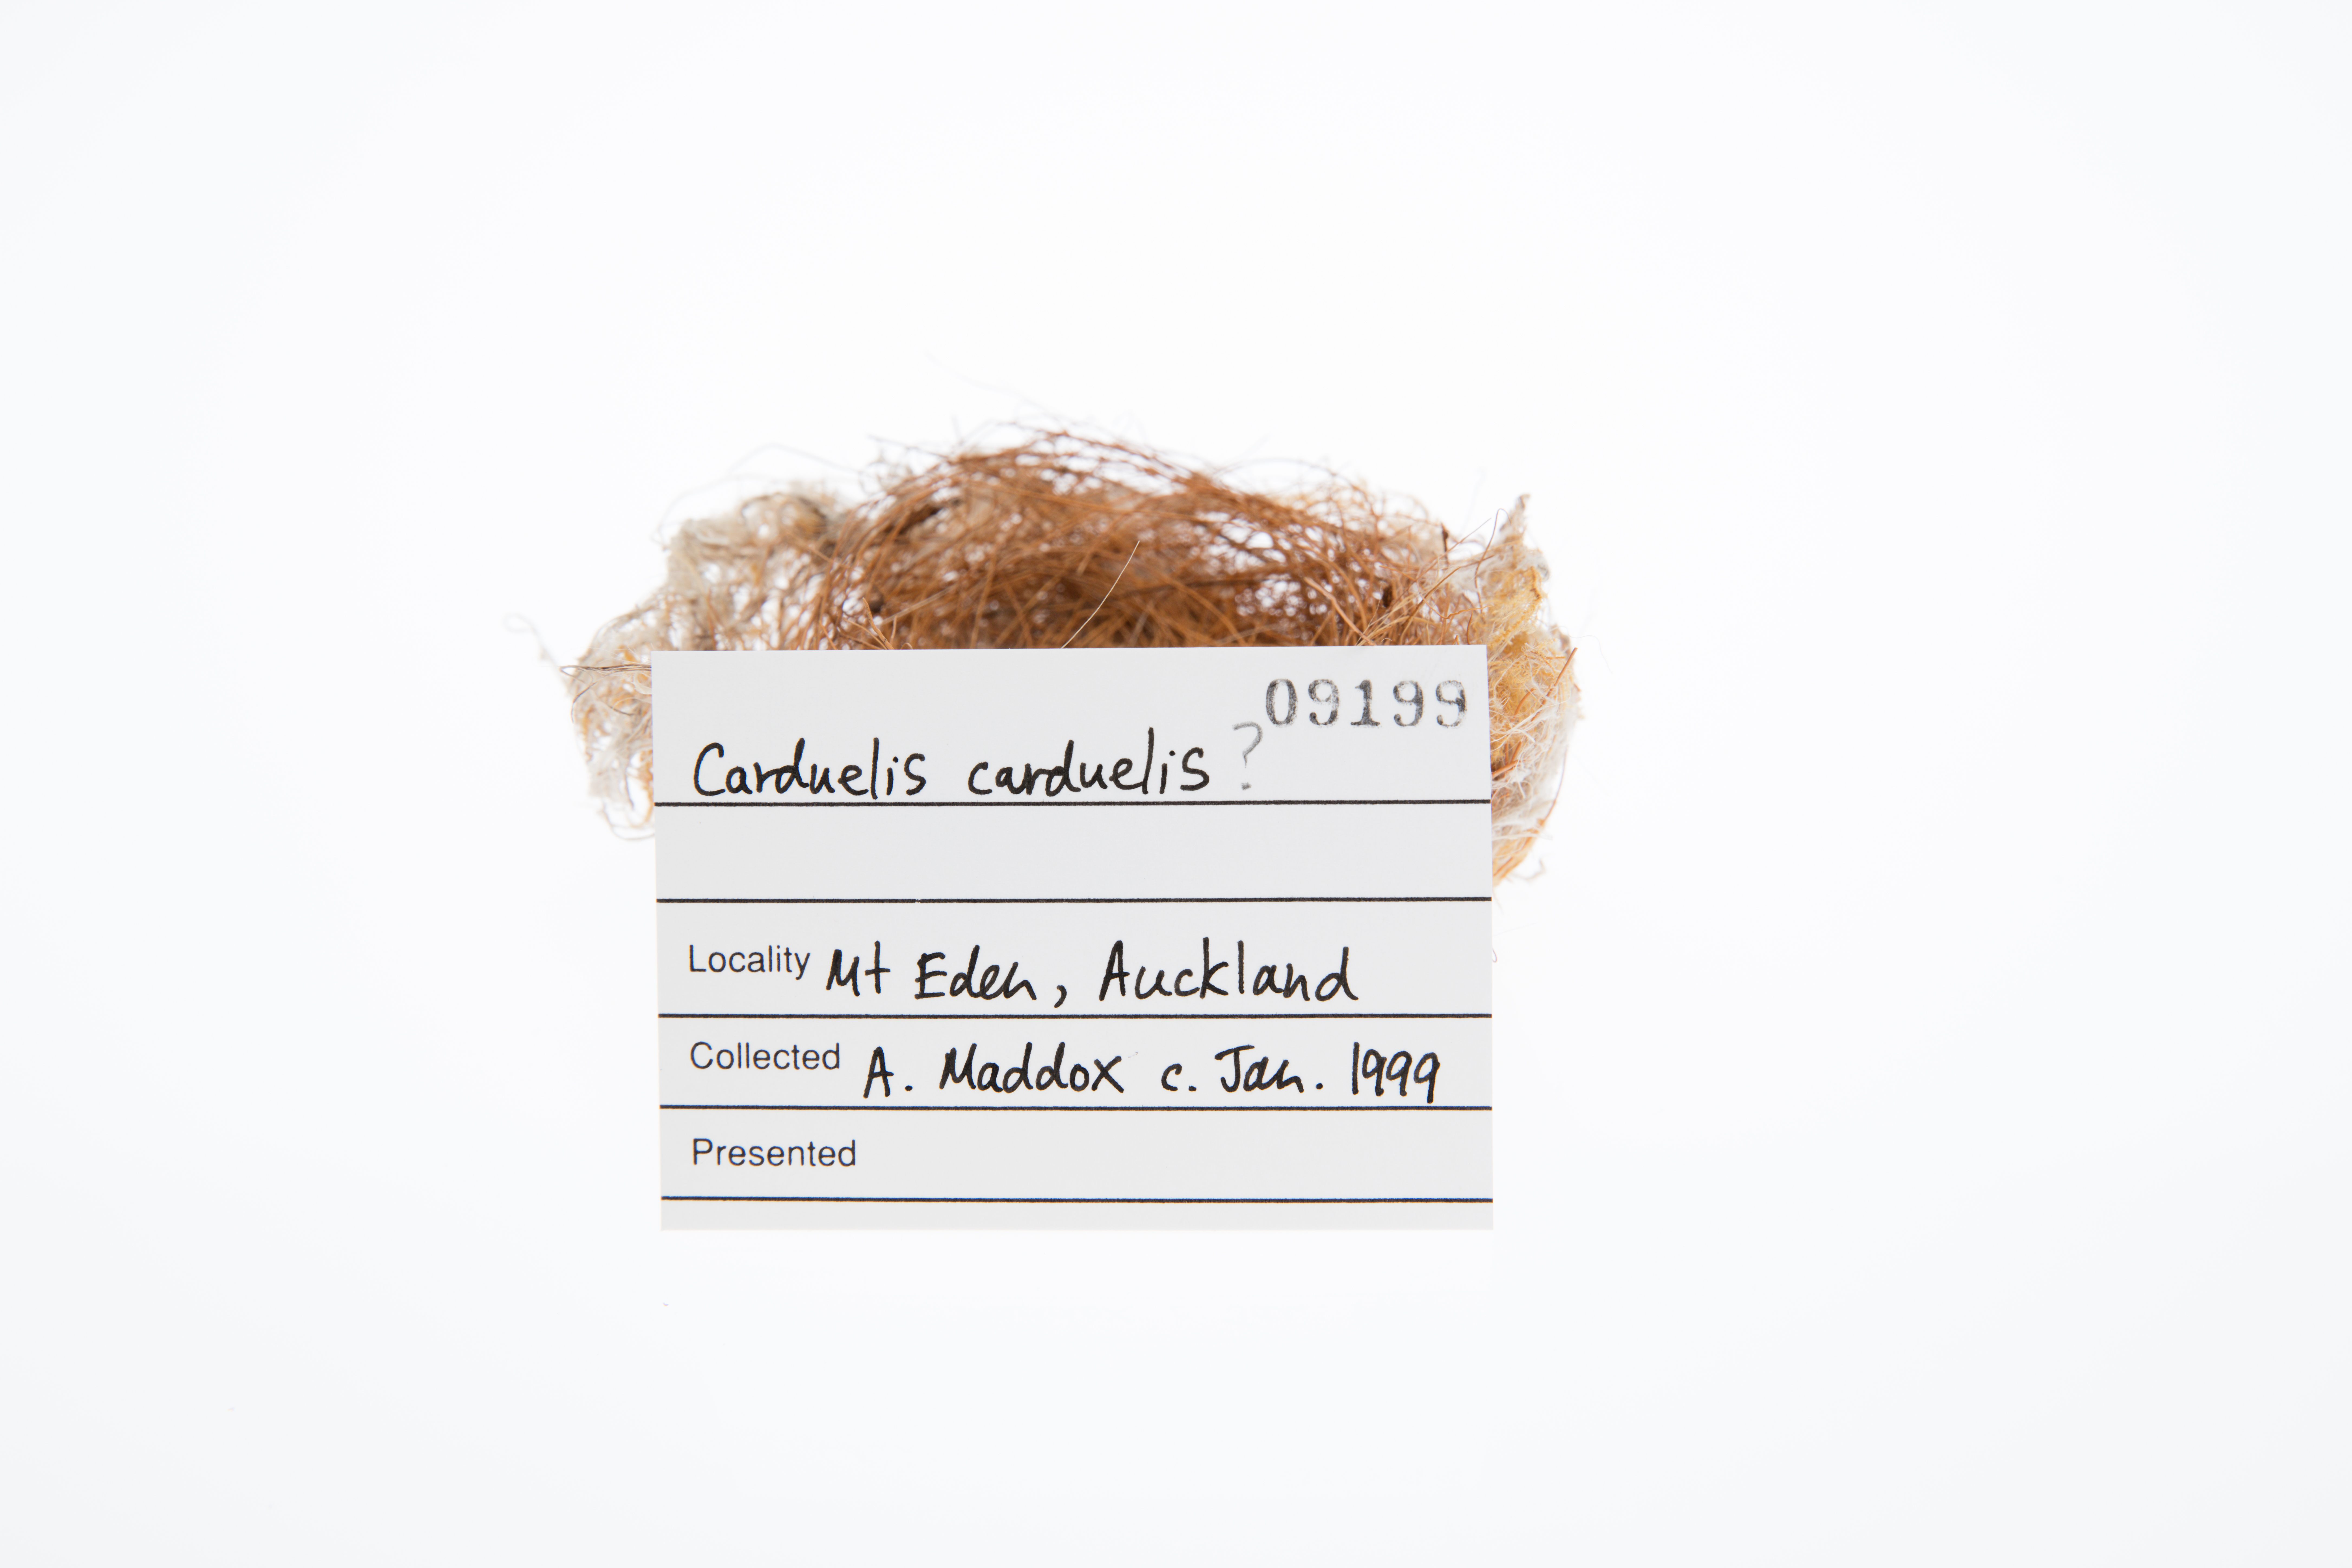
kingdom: Animalia
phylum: Chordata
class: Aves
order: Passeriformes
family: Fringillidae
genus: Carduelis
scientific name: Carduelis carduelis
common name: European goldfinch
